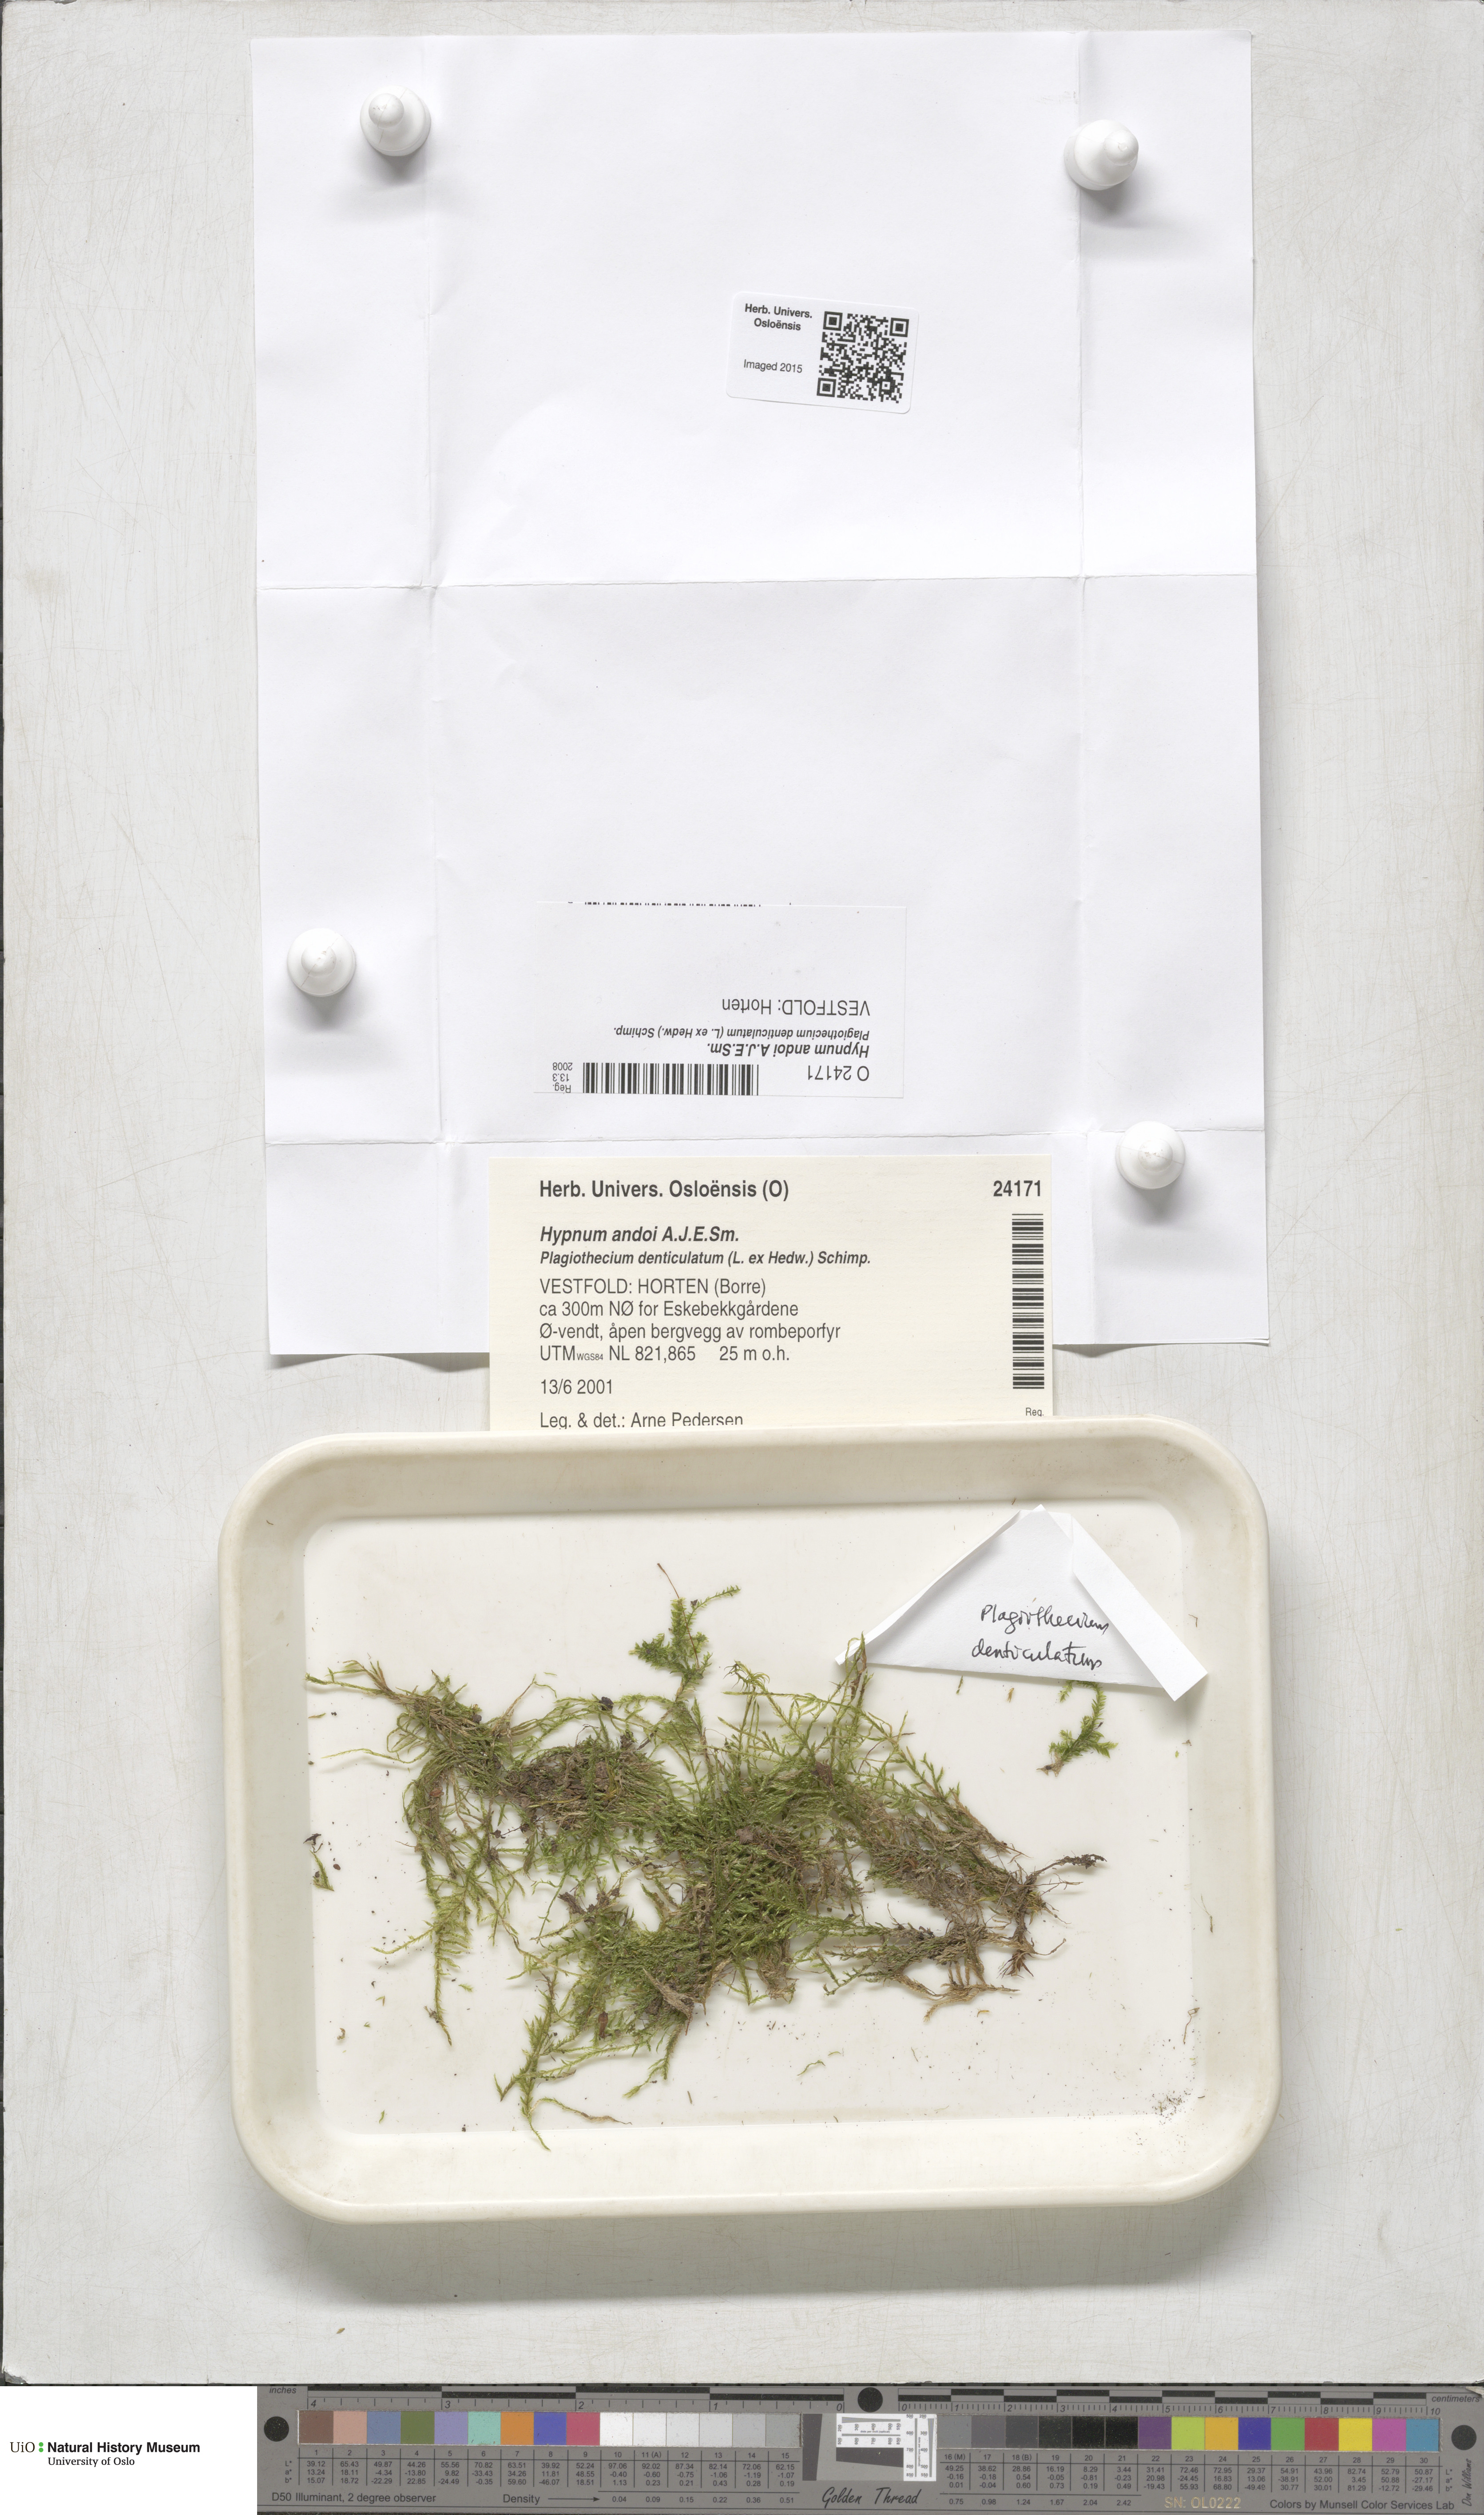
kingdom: Plantae
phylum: Bryophyta
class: Bryopsida
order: Hypnales
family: Hypnaceae
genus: Hypnum
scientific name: Hypnum andoi
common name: Ando's plait moss
